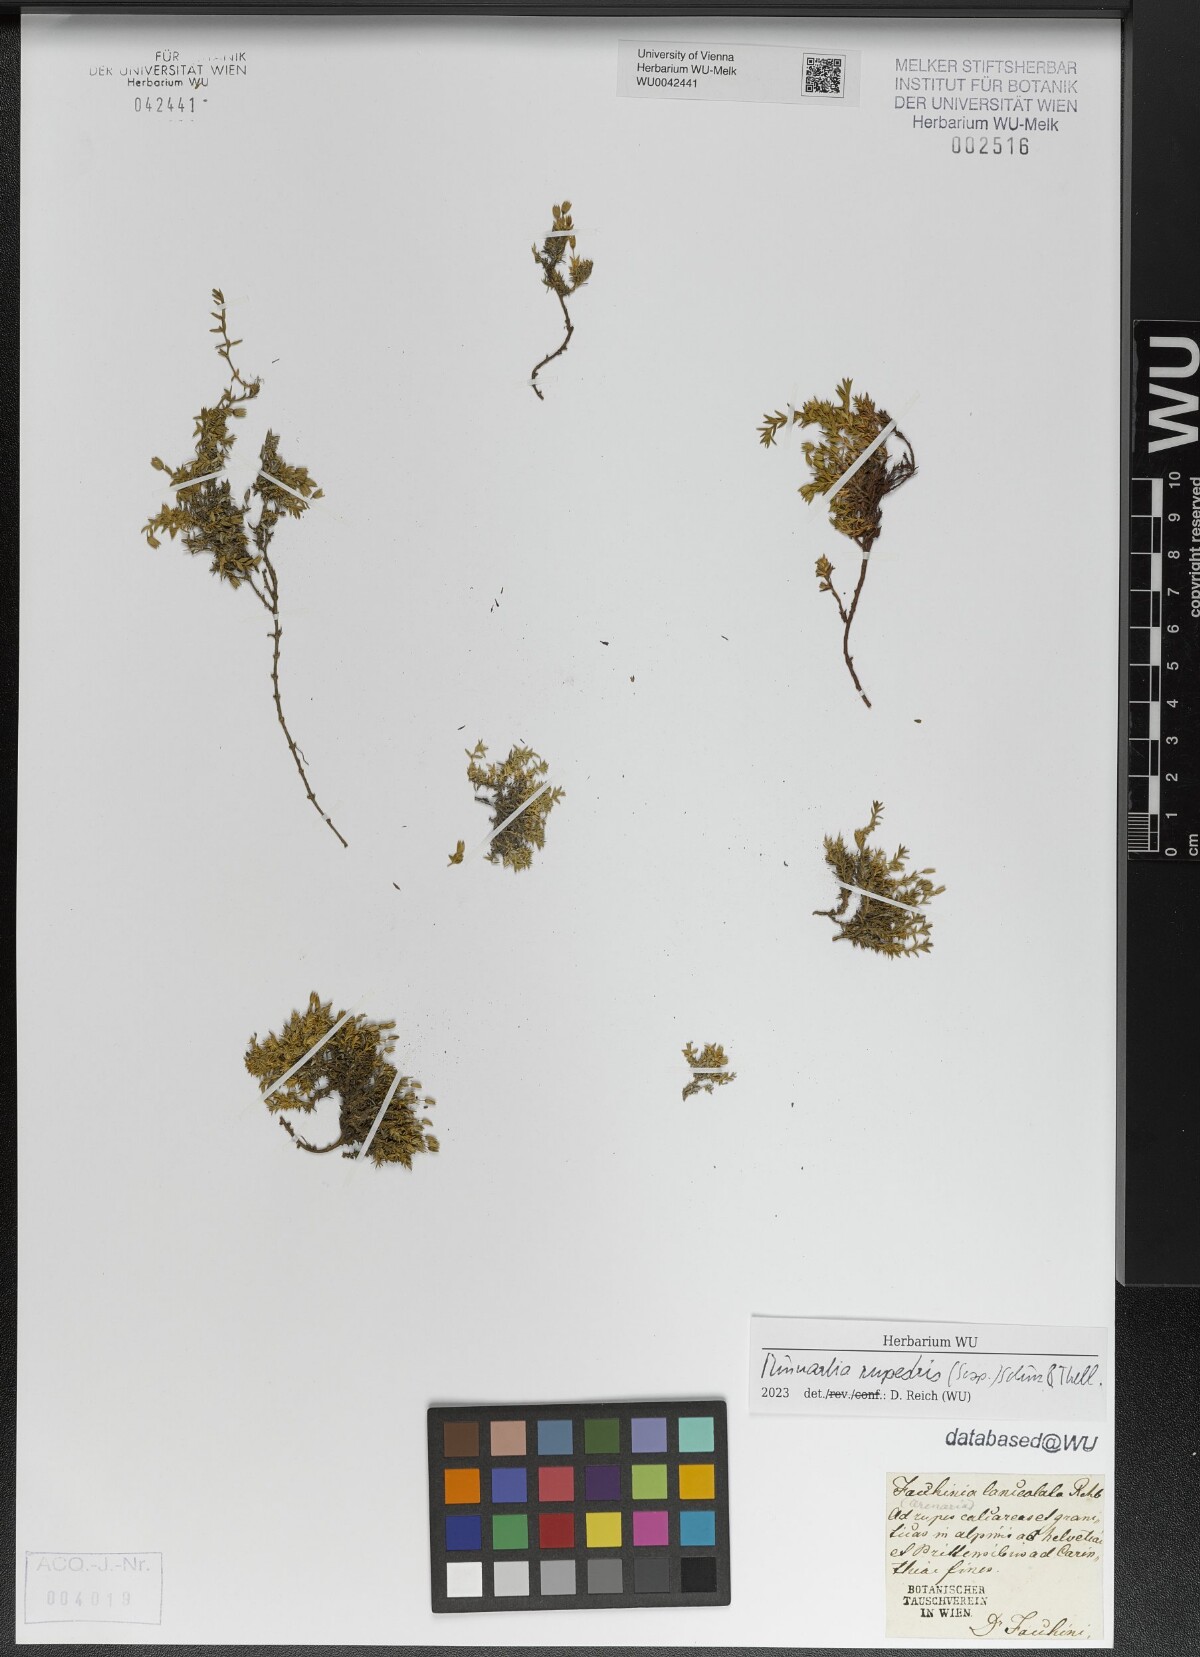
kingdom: Plantae
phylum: Tracheophyta
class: Magnoliopsida
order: Caryophyllales
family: Caryophyllaceae
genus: Facchinia
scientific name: Facchinia rupestris
